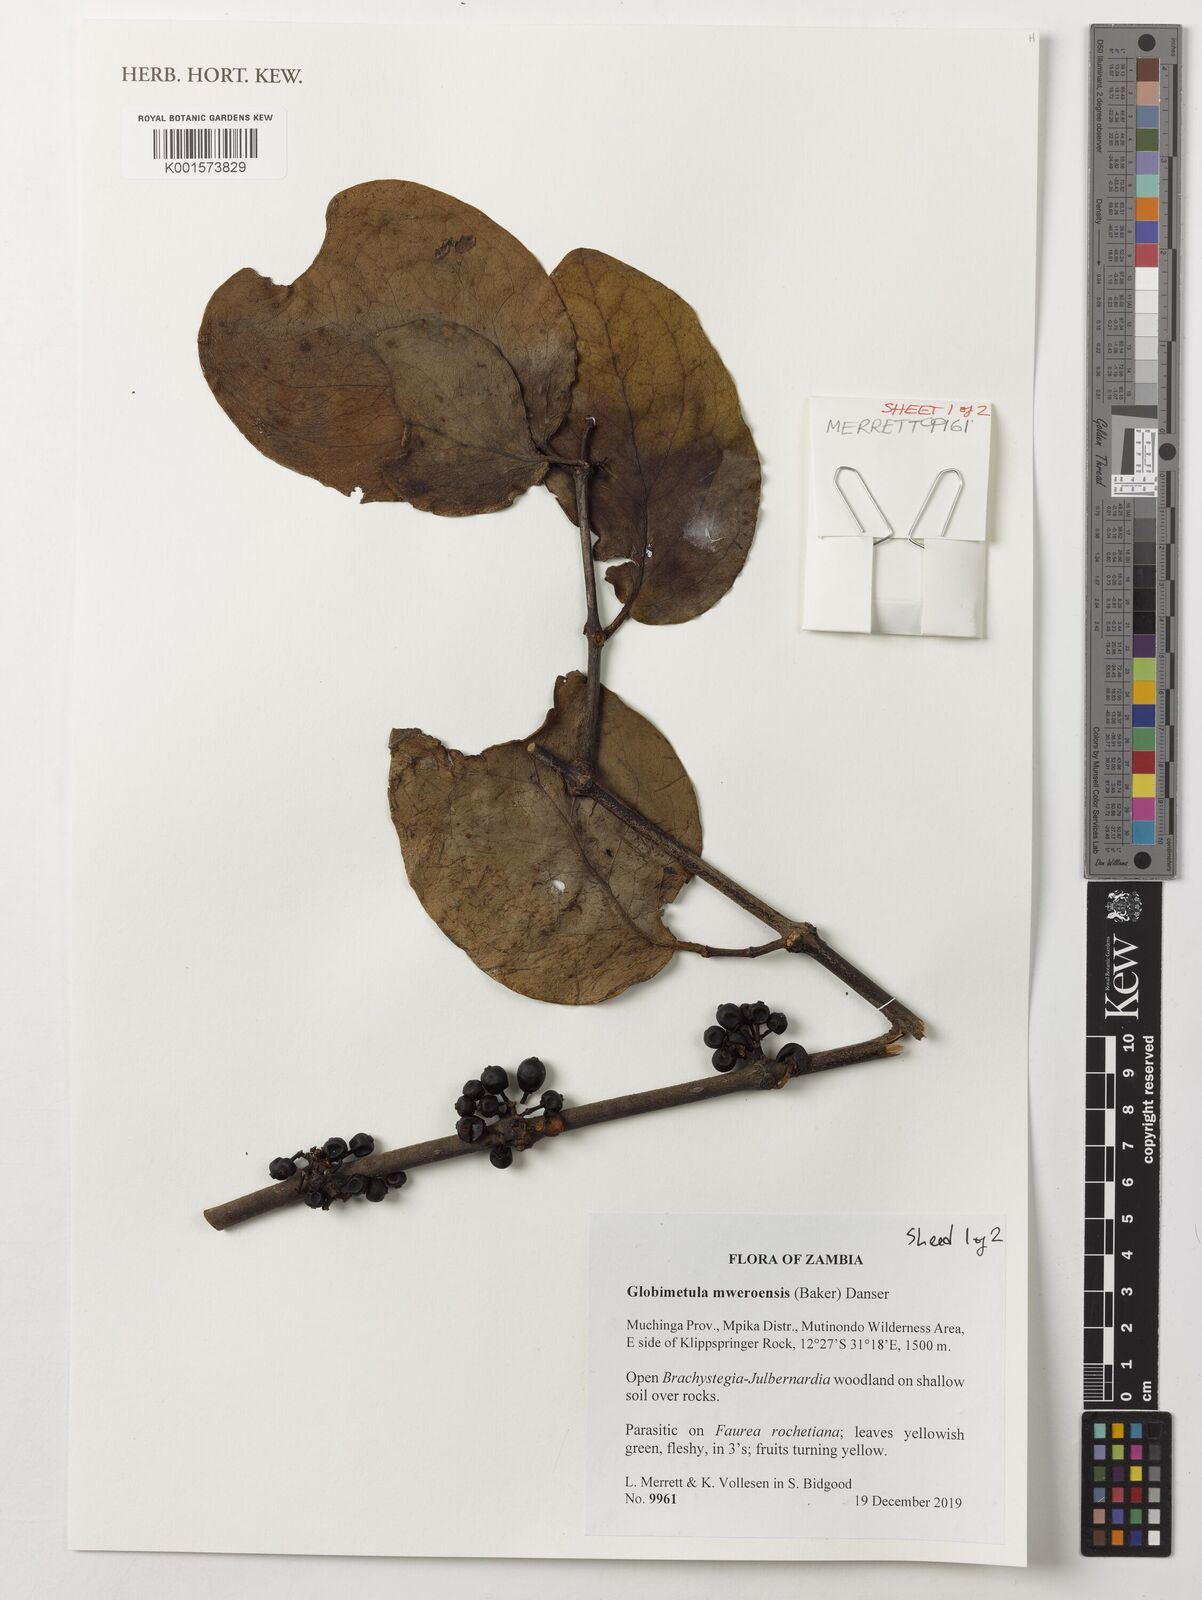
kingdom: Plantae
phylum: Tracheophyta
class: Magnoliopsida
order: Santalales
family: Loranthaceae
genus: Globimetula
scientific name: Globimetula mweroensis
